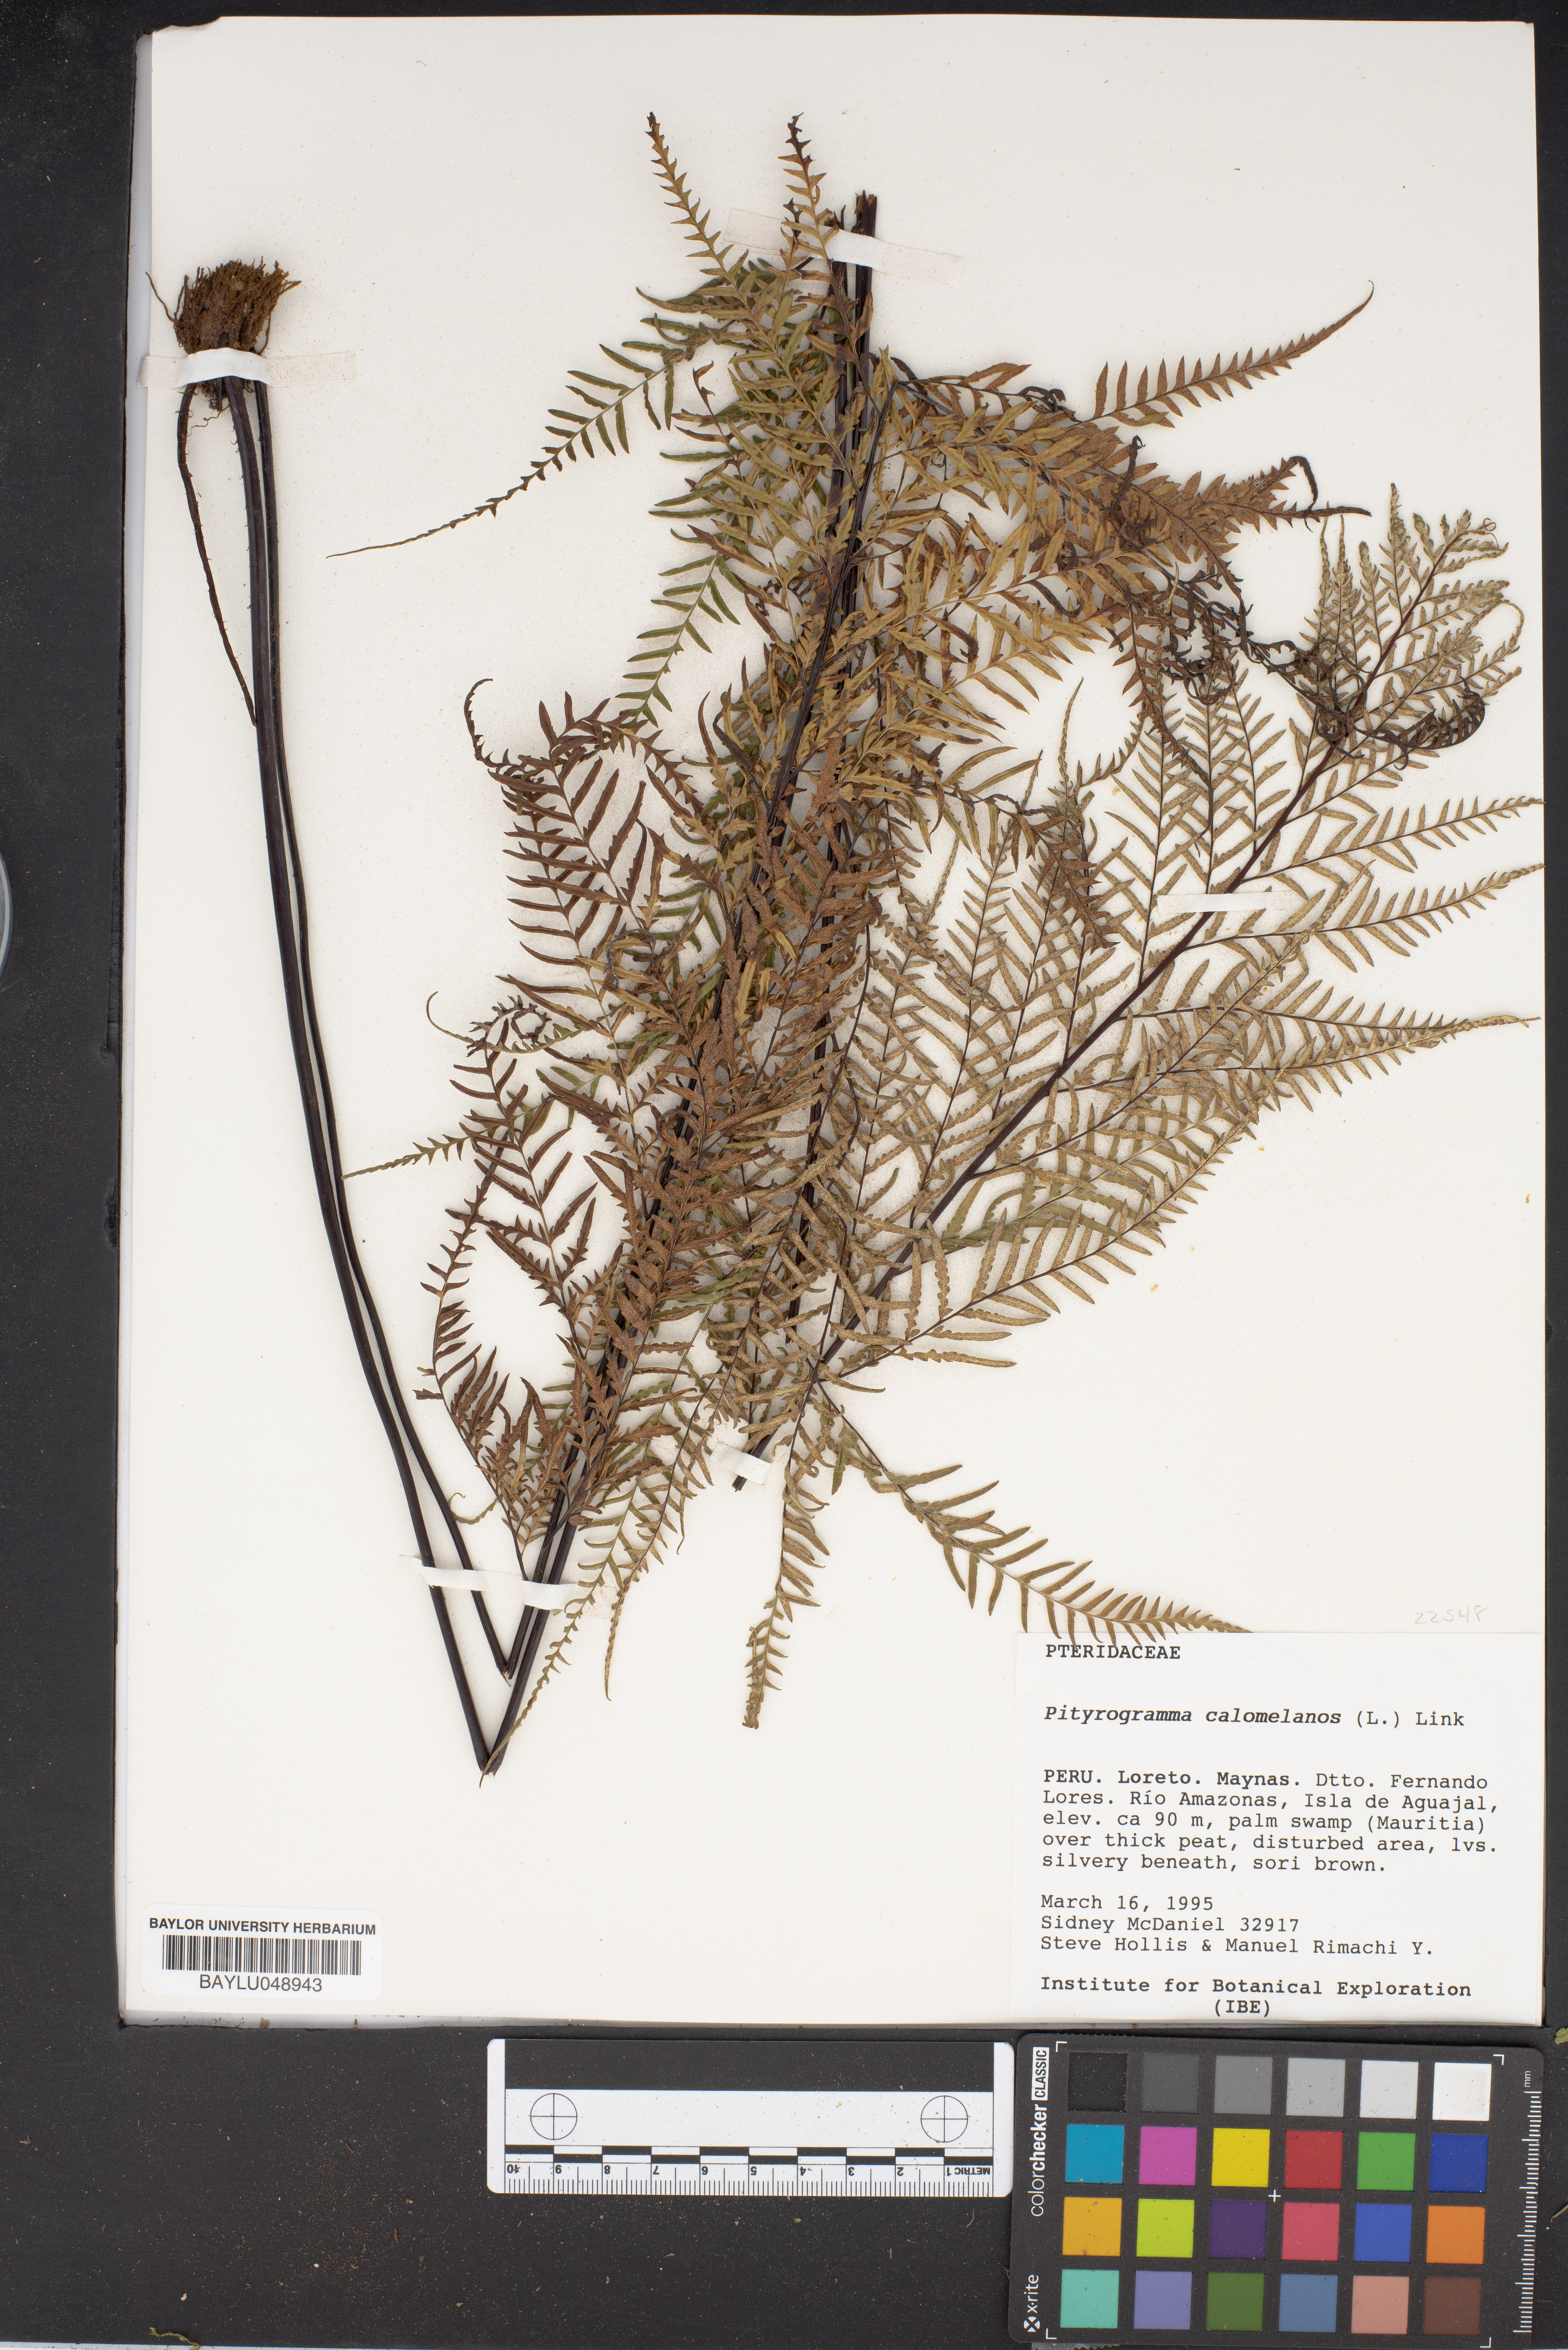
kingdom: Plantae
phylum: Tracheophyta
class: Polypodiopsida
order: Polypodiales
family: Pteridaceae
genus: Pityrogramma
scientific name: Pityrogramma calomelanos
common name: Dixie silverback fern
